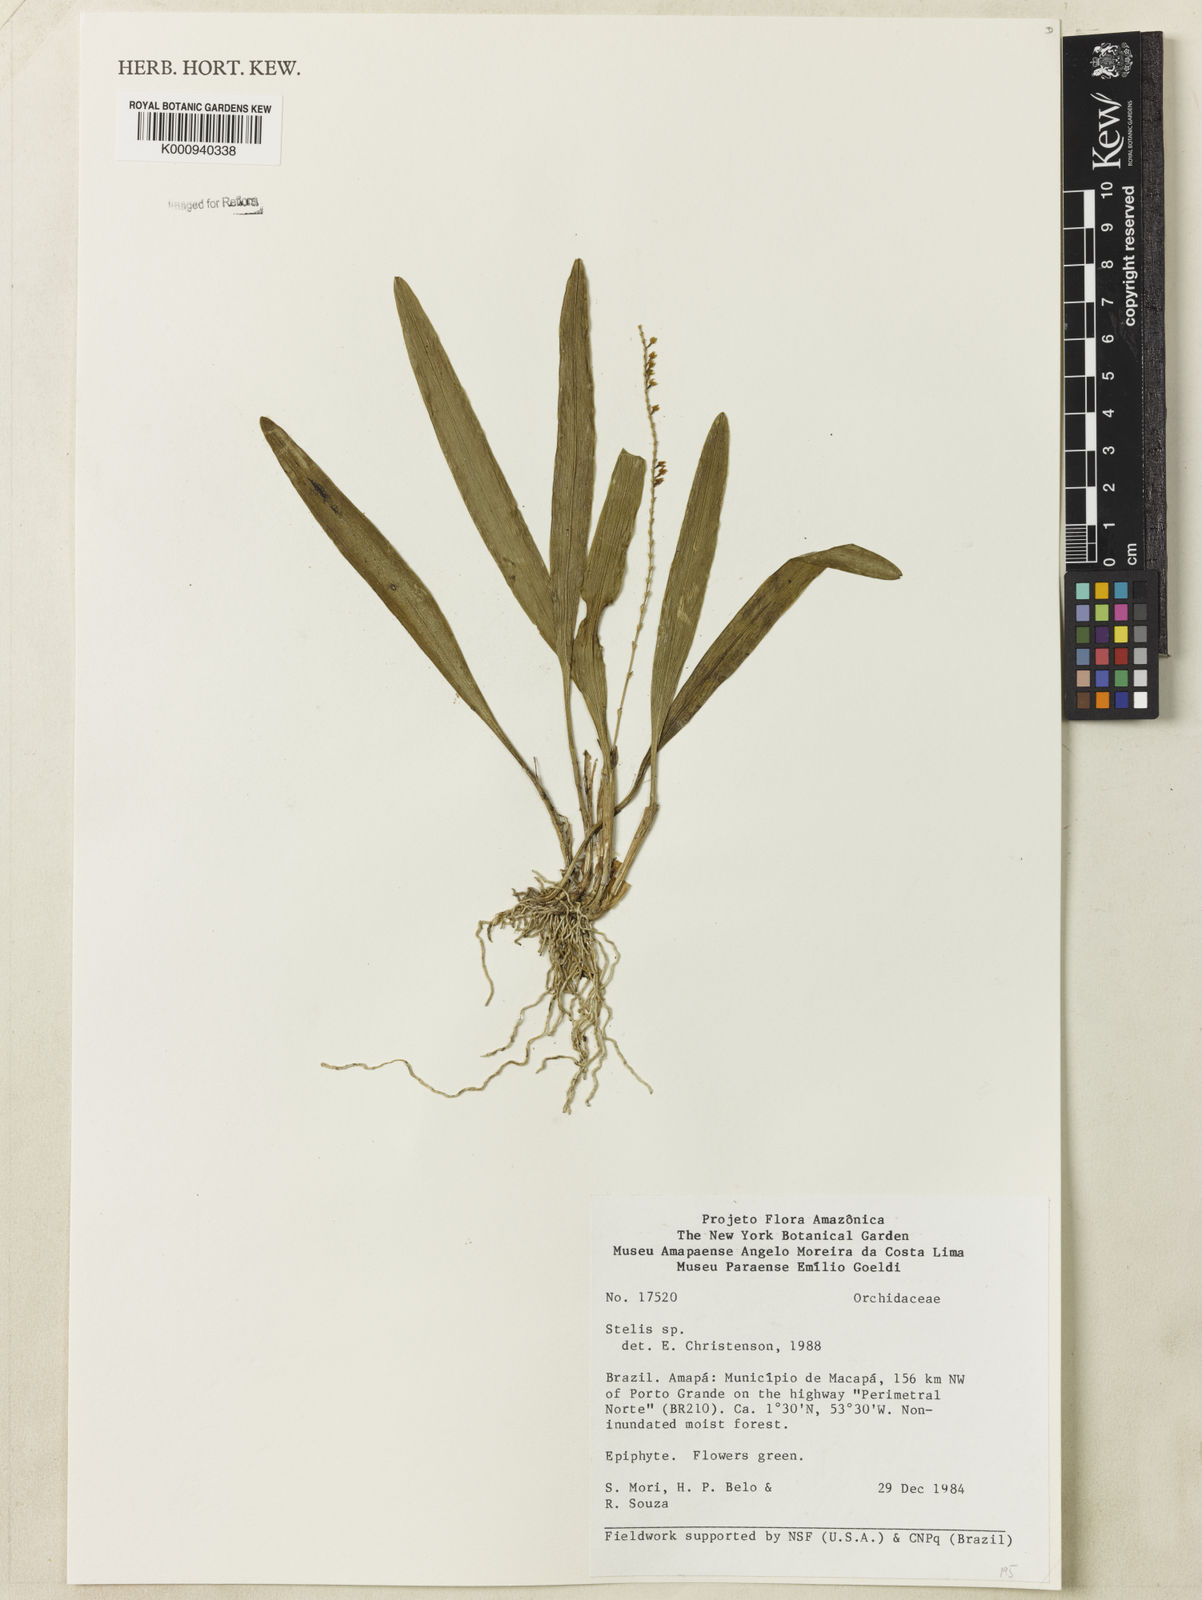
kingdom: Plantae
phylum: Tracheophyta
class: Liliopsida
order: Asparagales
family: Orchidaceae
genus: Stelis
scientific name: Stelis
